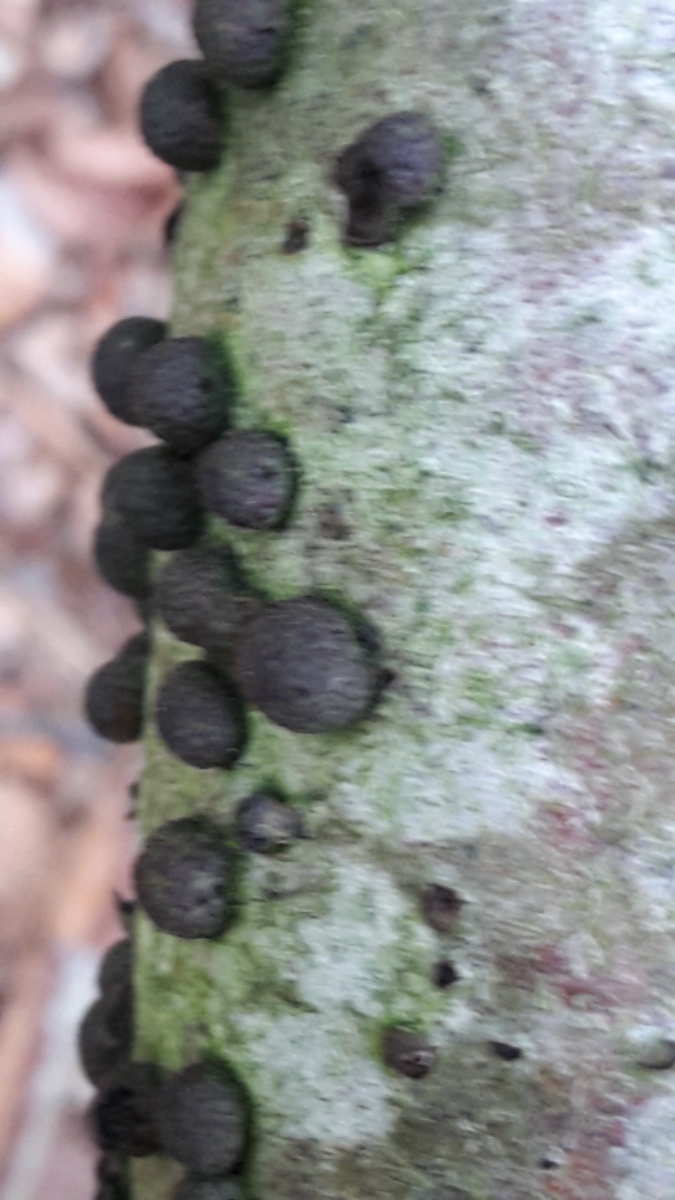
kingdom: Fungi
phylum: Ascomycota
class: Sordariomycetes
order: Xylariales
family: Hypoxylaceae
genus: Hypoxylon
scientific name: Hypoxylon fragiforme
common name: kuljordbær
